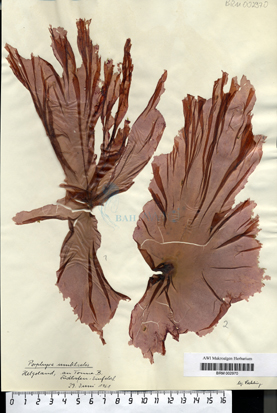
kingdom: Plantae
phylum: Rhodophyta
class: Bangiophyceae
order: Bangiales
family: Bangiaceae
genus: Porphyra
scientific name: Porphyra umbilicalis
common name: Purple laver
